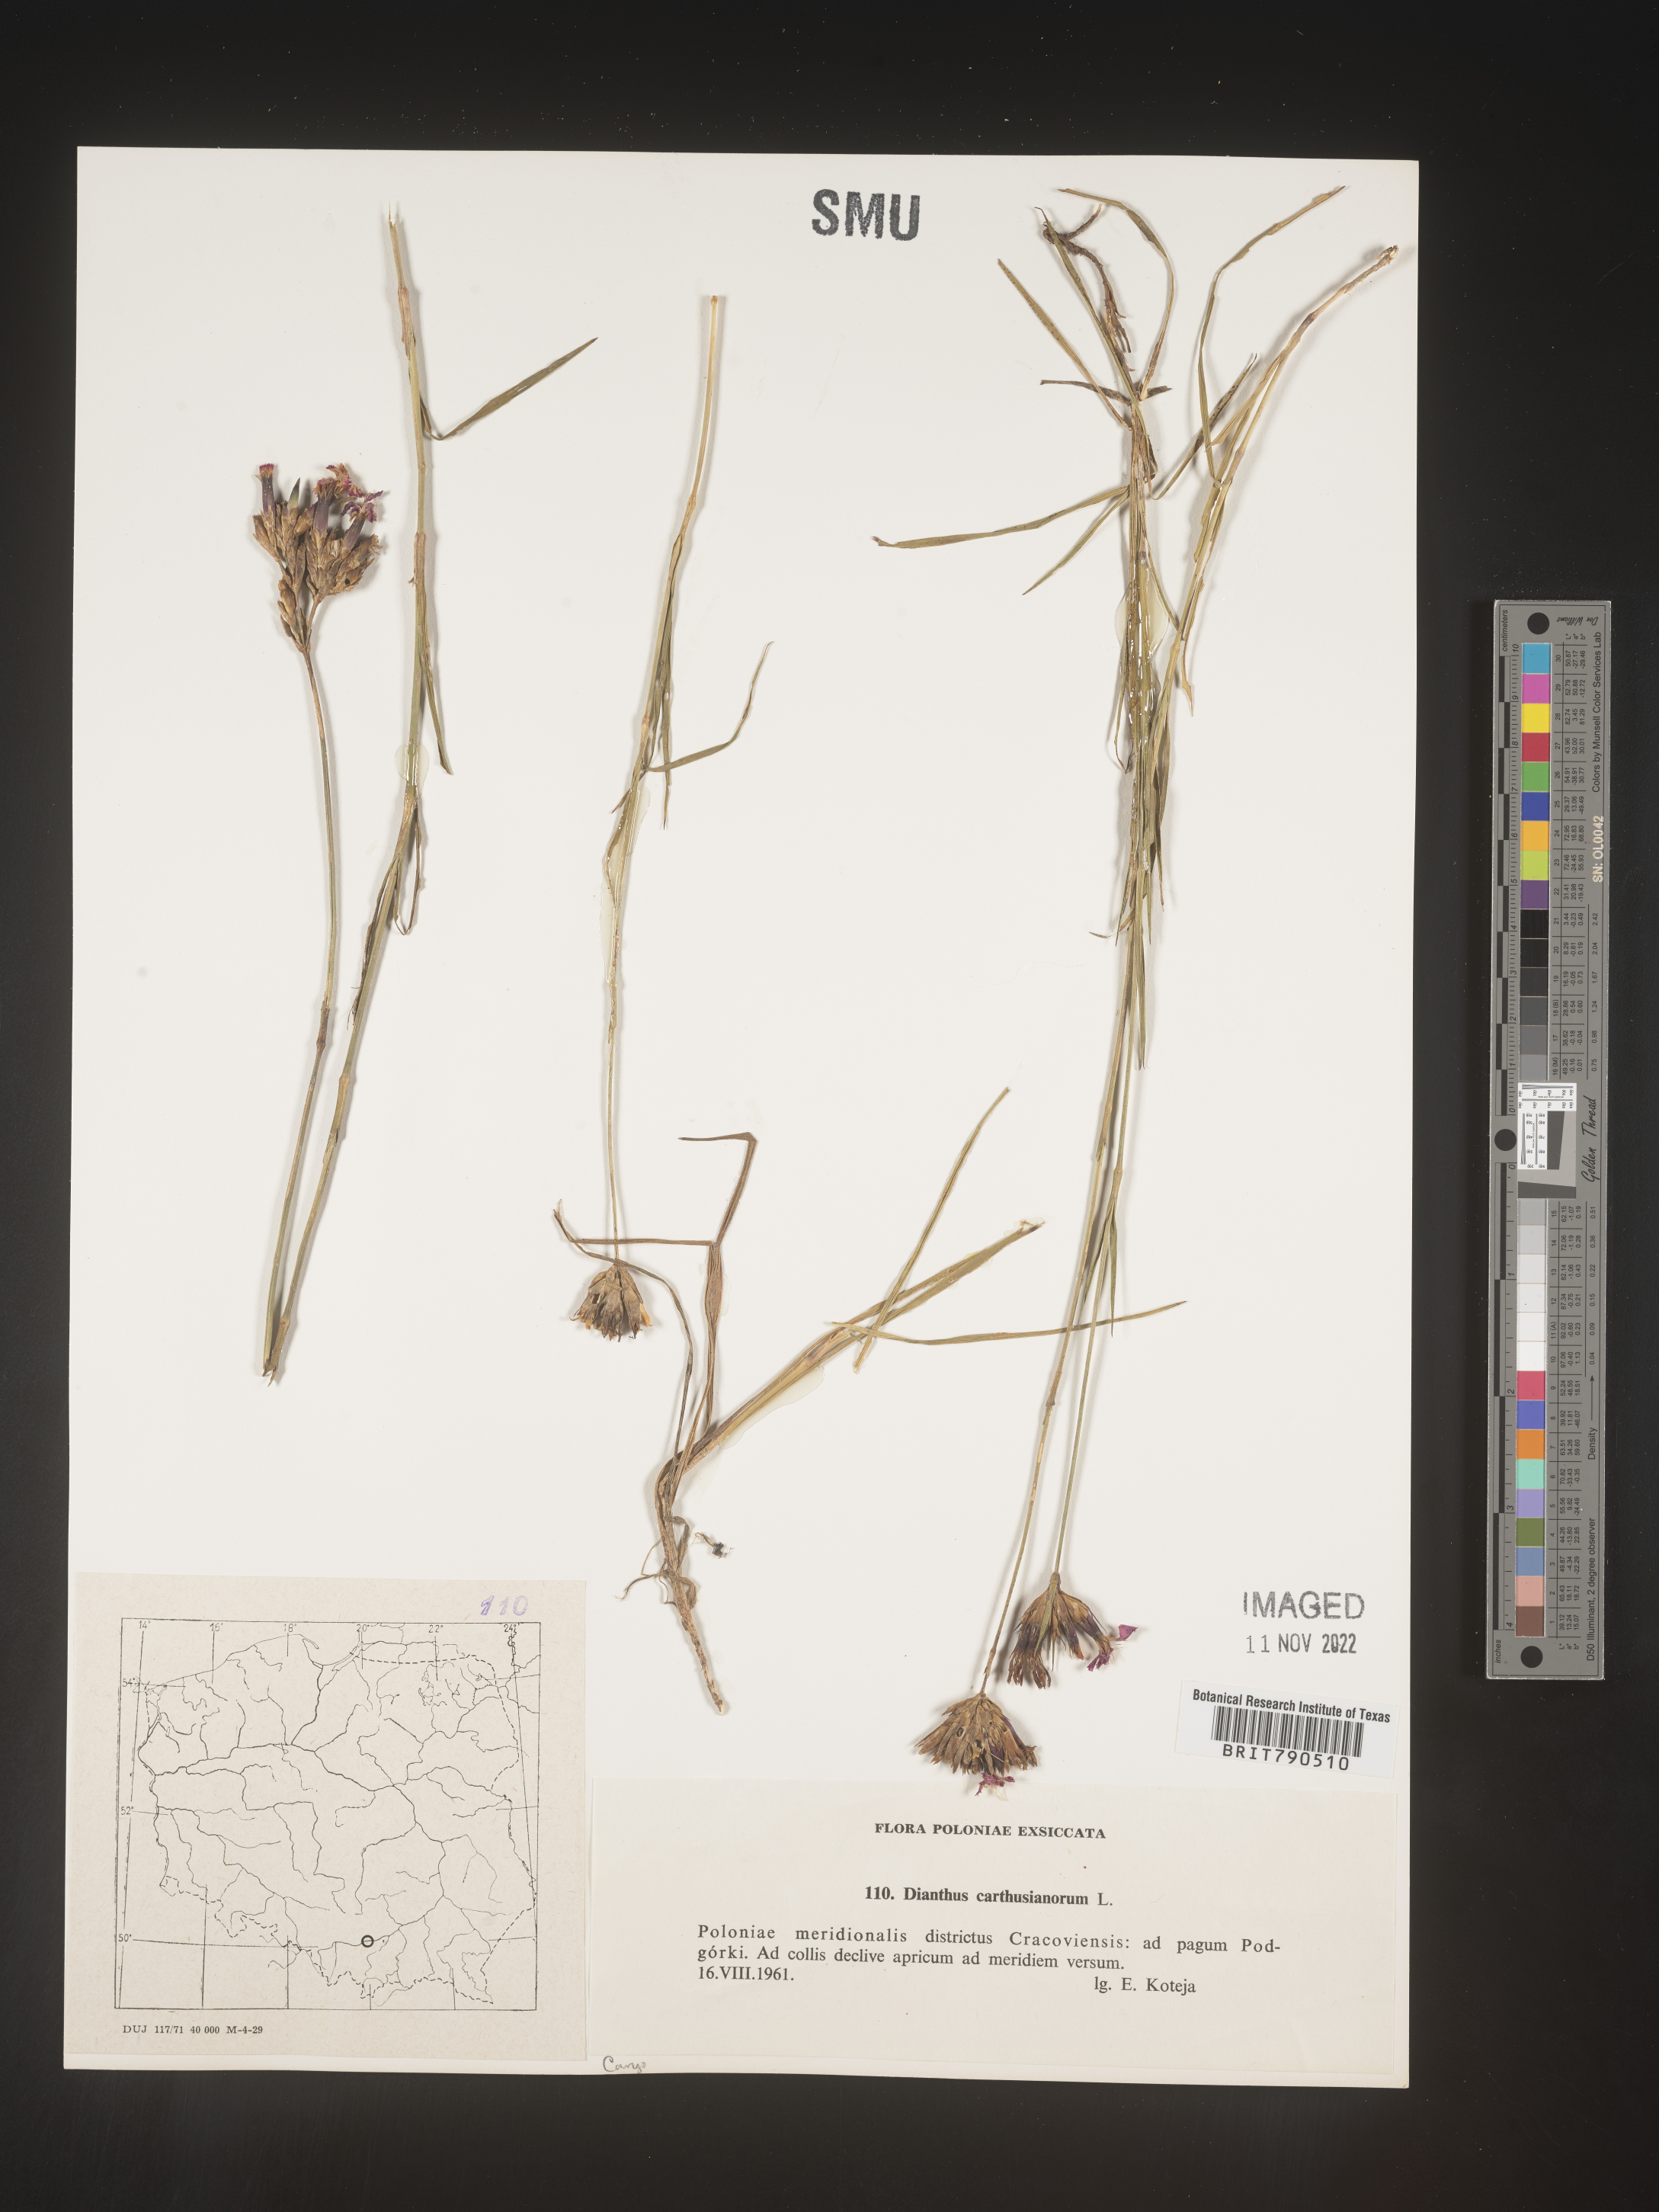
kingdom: Plantae
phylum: Tracheophyta
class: Magnoliopsida
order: Caryophyllales
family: Caryophyllaceae
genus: Dianthus
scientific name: Dianthus carthusianorum
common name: Carthusian pink
